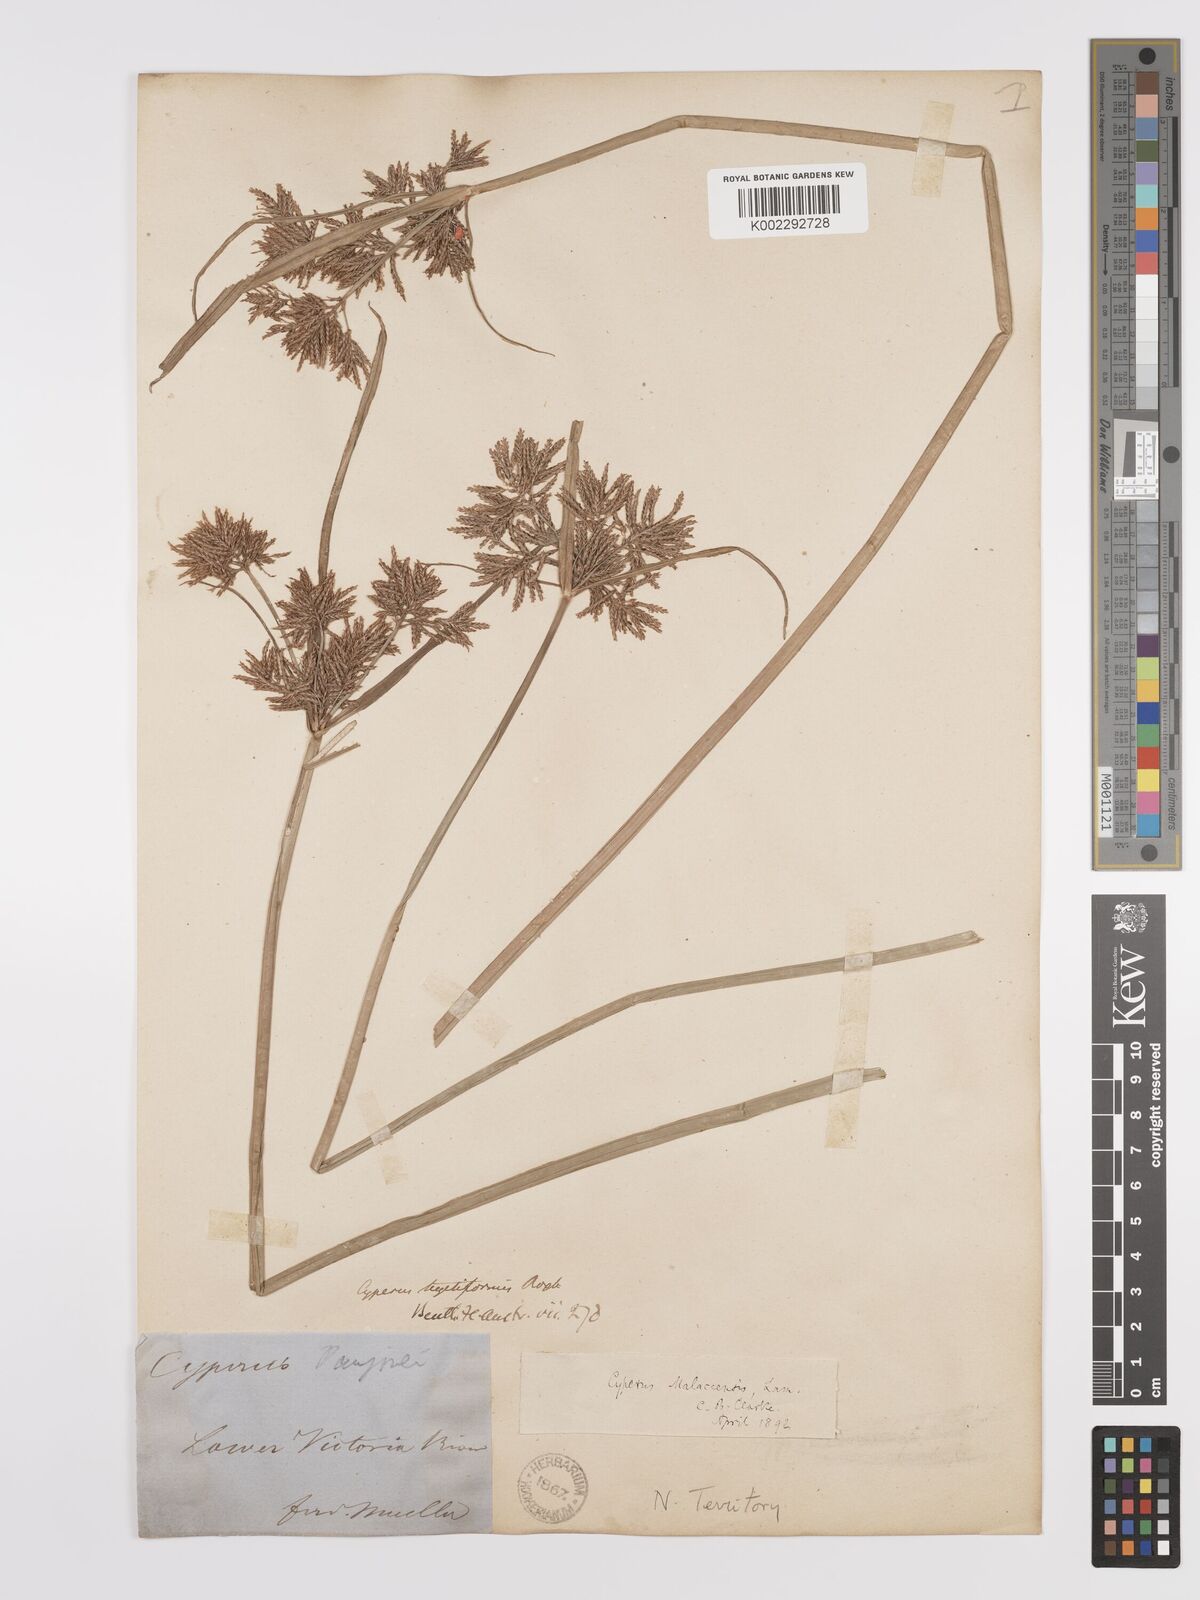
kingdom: Plantae
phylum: Tracheophyta
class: Liliopsida
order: Poales
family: Cyperaceae
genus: Cyperus
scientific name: Cyperus malaccensis
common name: Shichito matgrass
